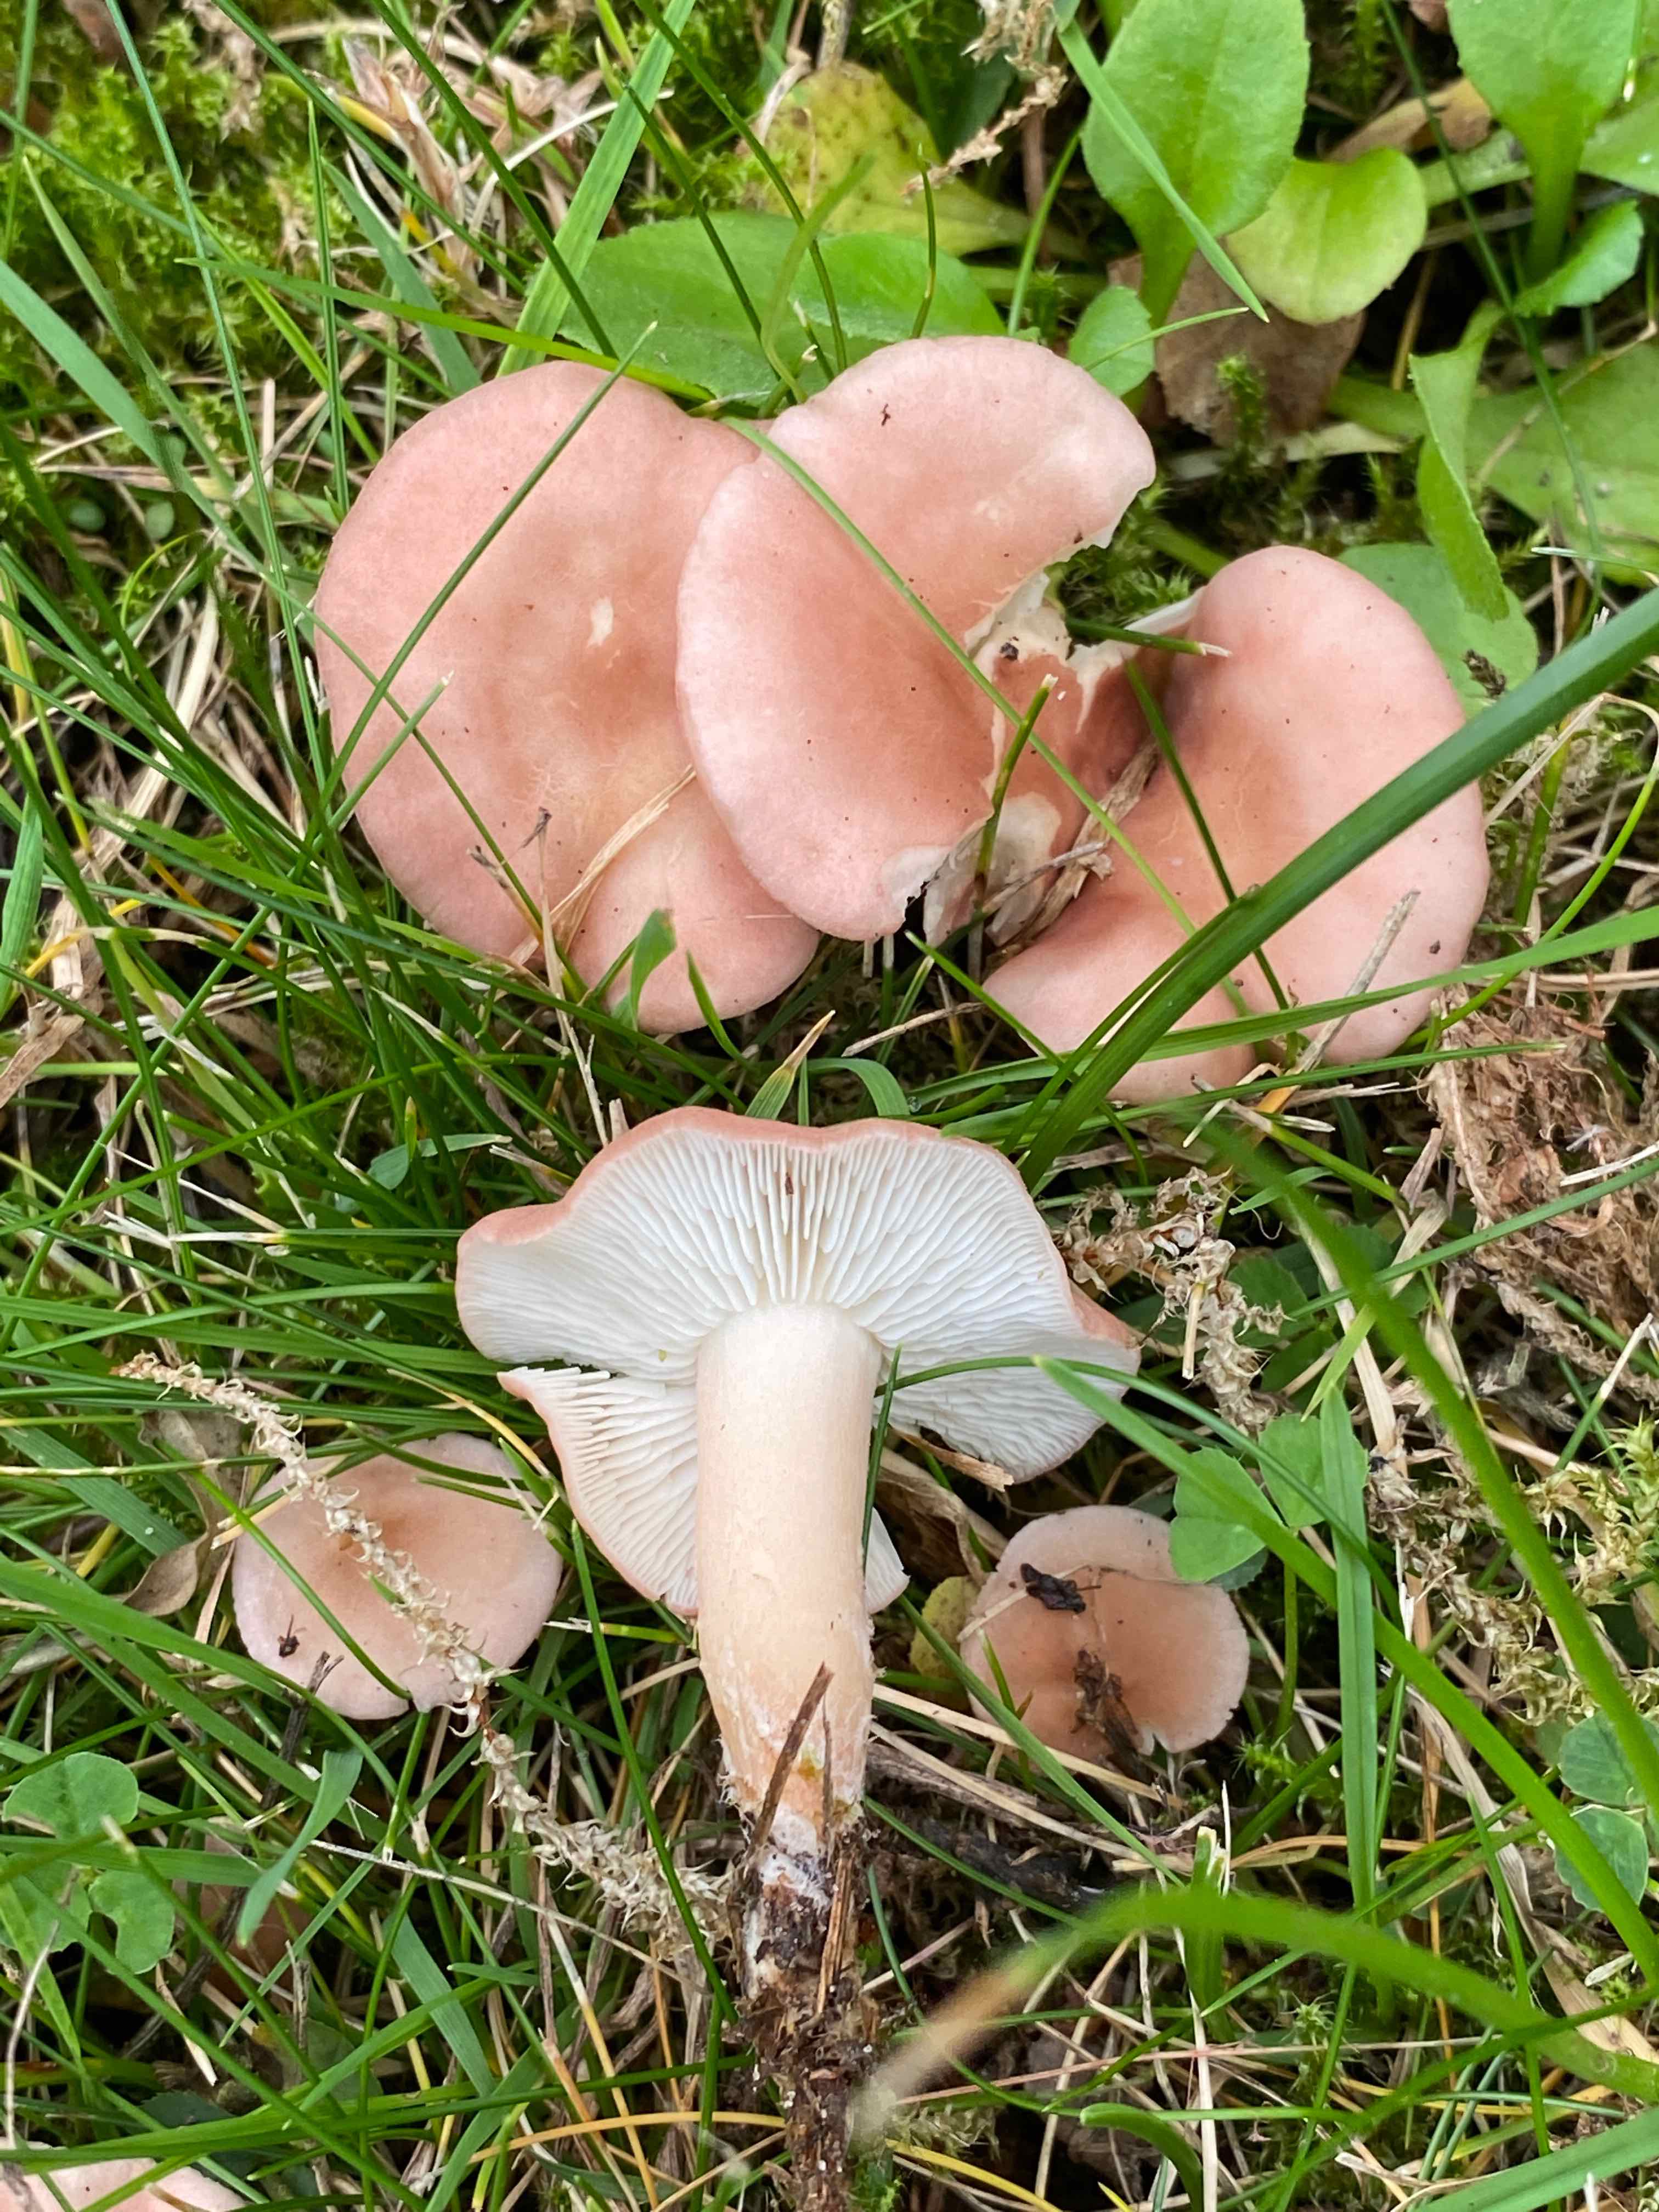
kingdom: Fungi
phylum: Basidiomycota
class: Agaricomycetes
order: Agaricales
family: Lyophyllaceae
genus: Calocybe
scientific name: Calocybe carnea
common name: rosa fagerhat
